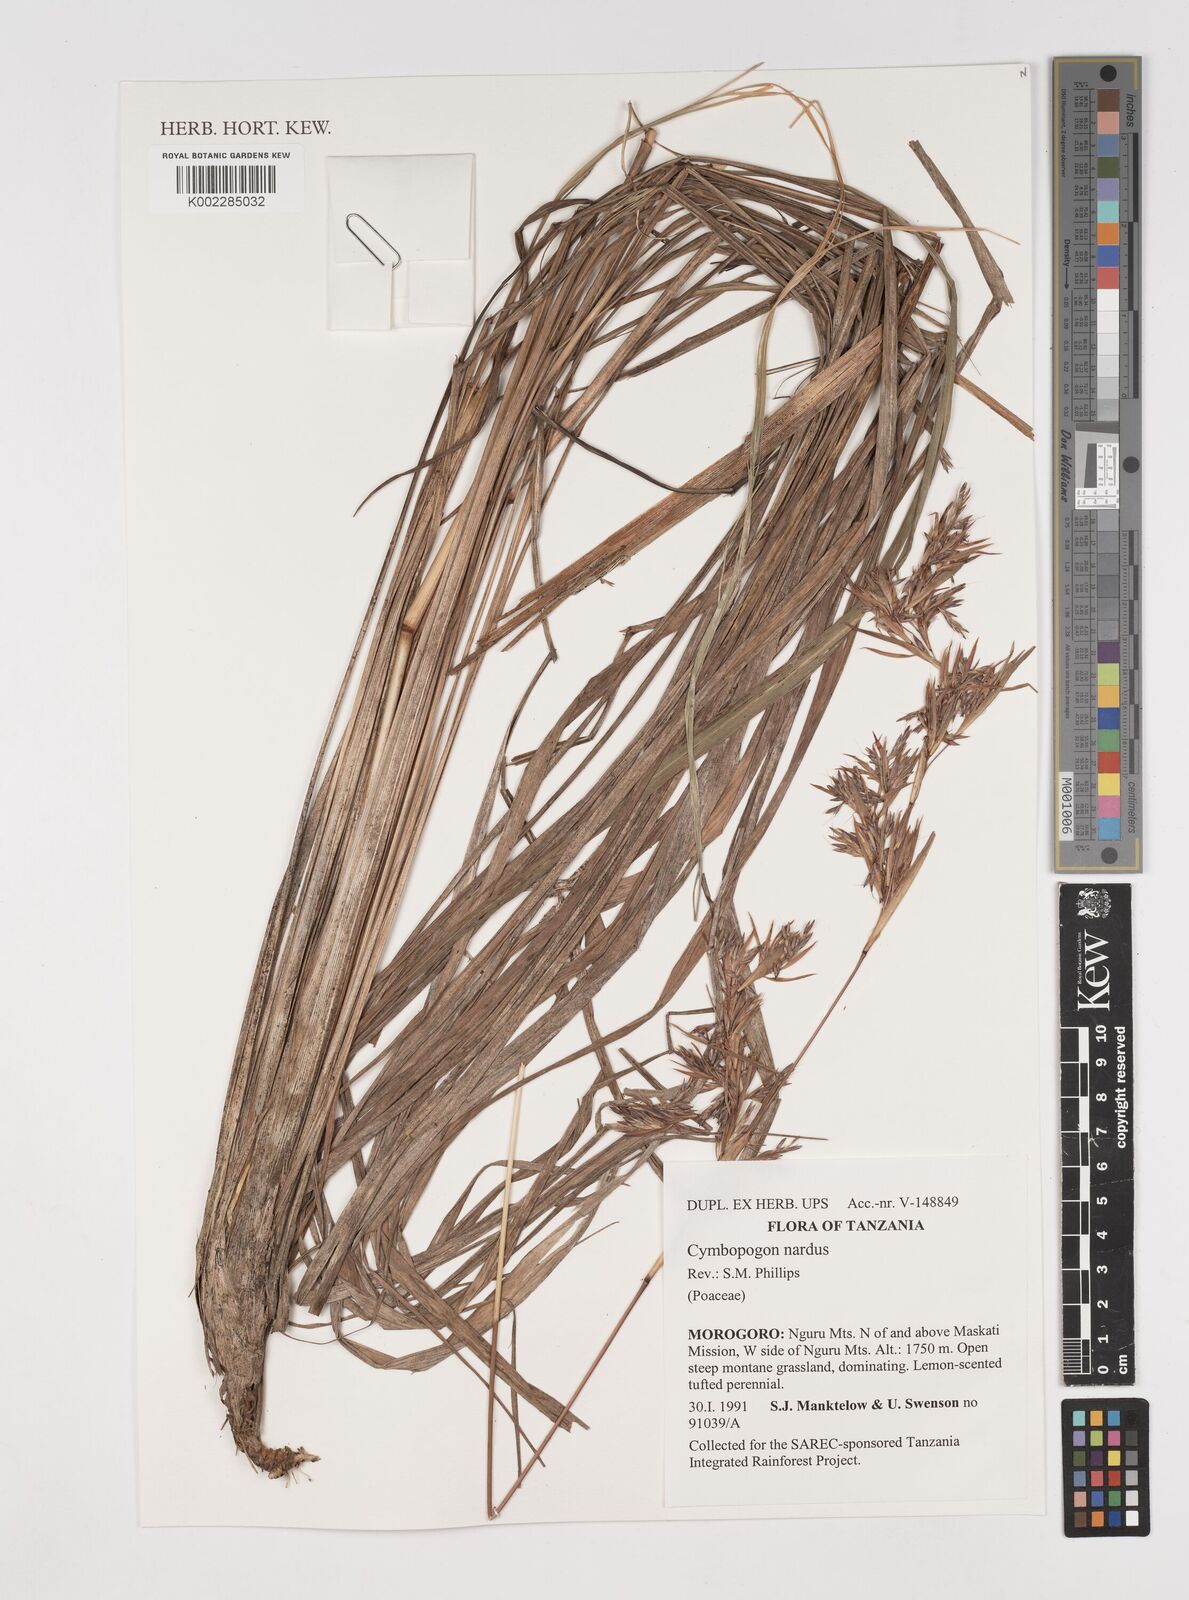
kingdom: Plantae
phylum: Tracheophyta
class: Liliopsida
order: Poales
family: Poaceae
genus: Cymbopogon
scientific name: Cymbopogon nardus
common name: Giant turpentine grass
